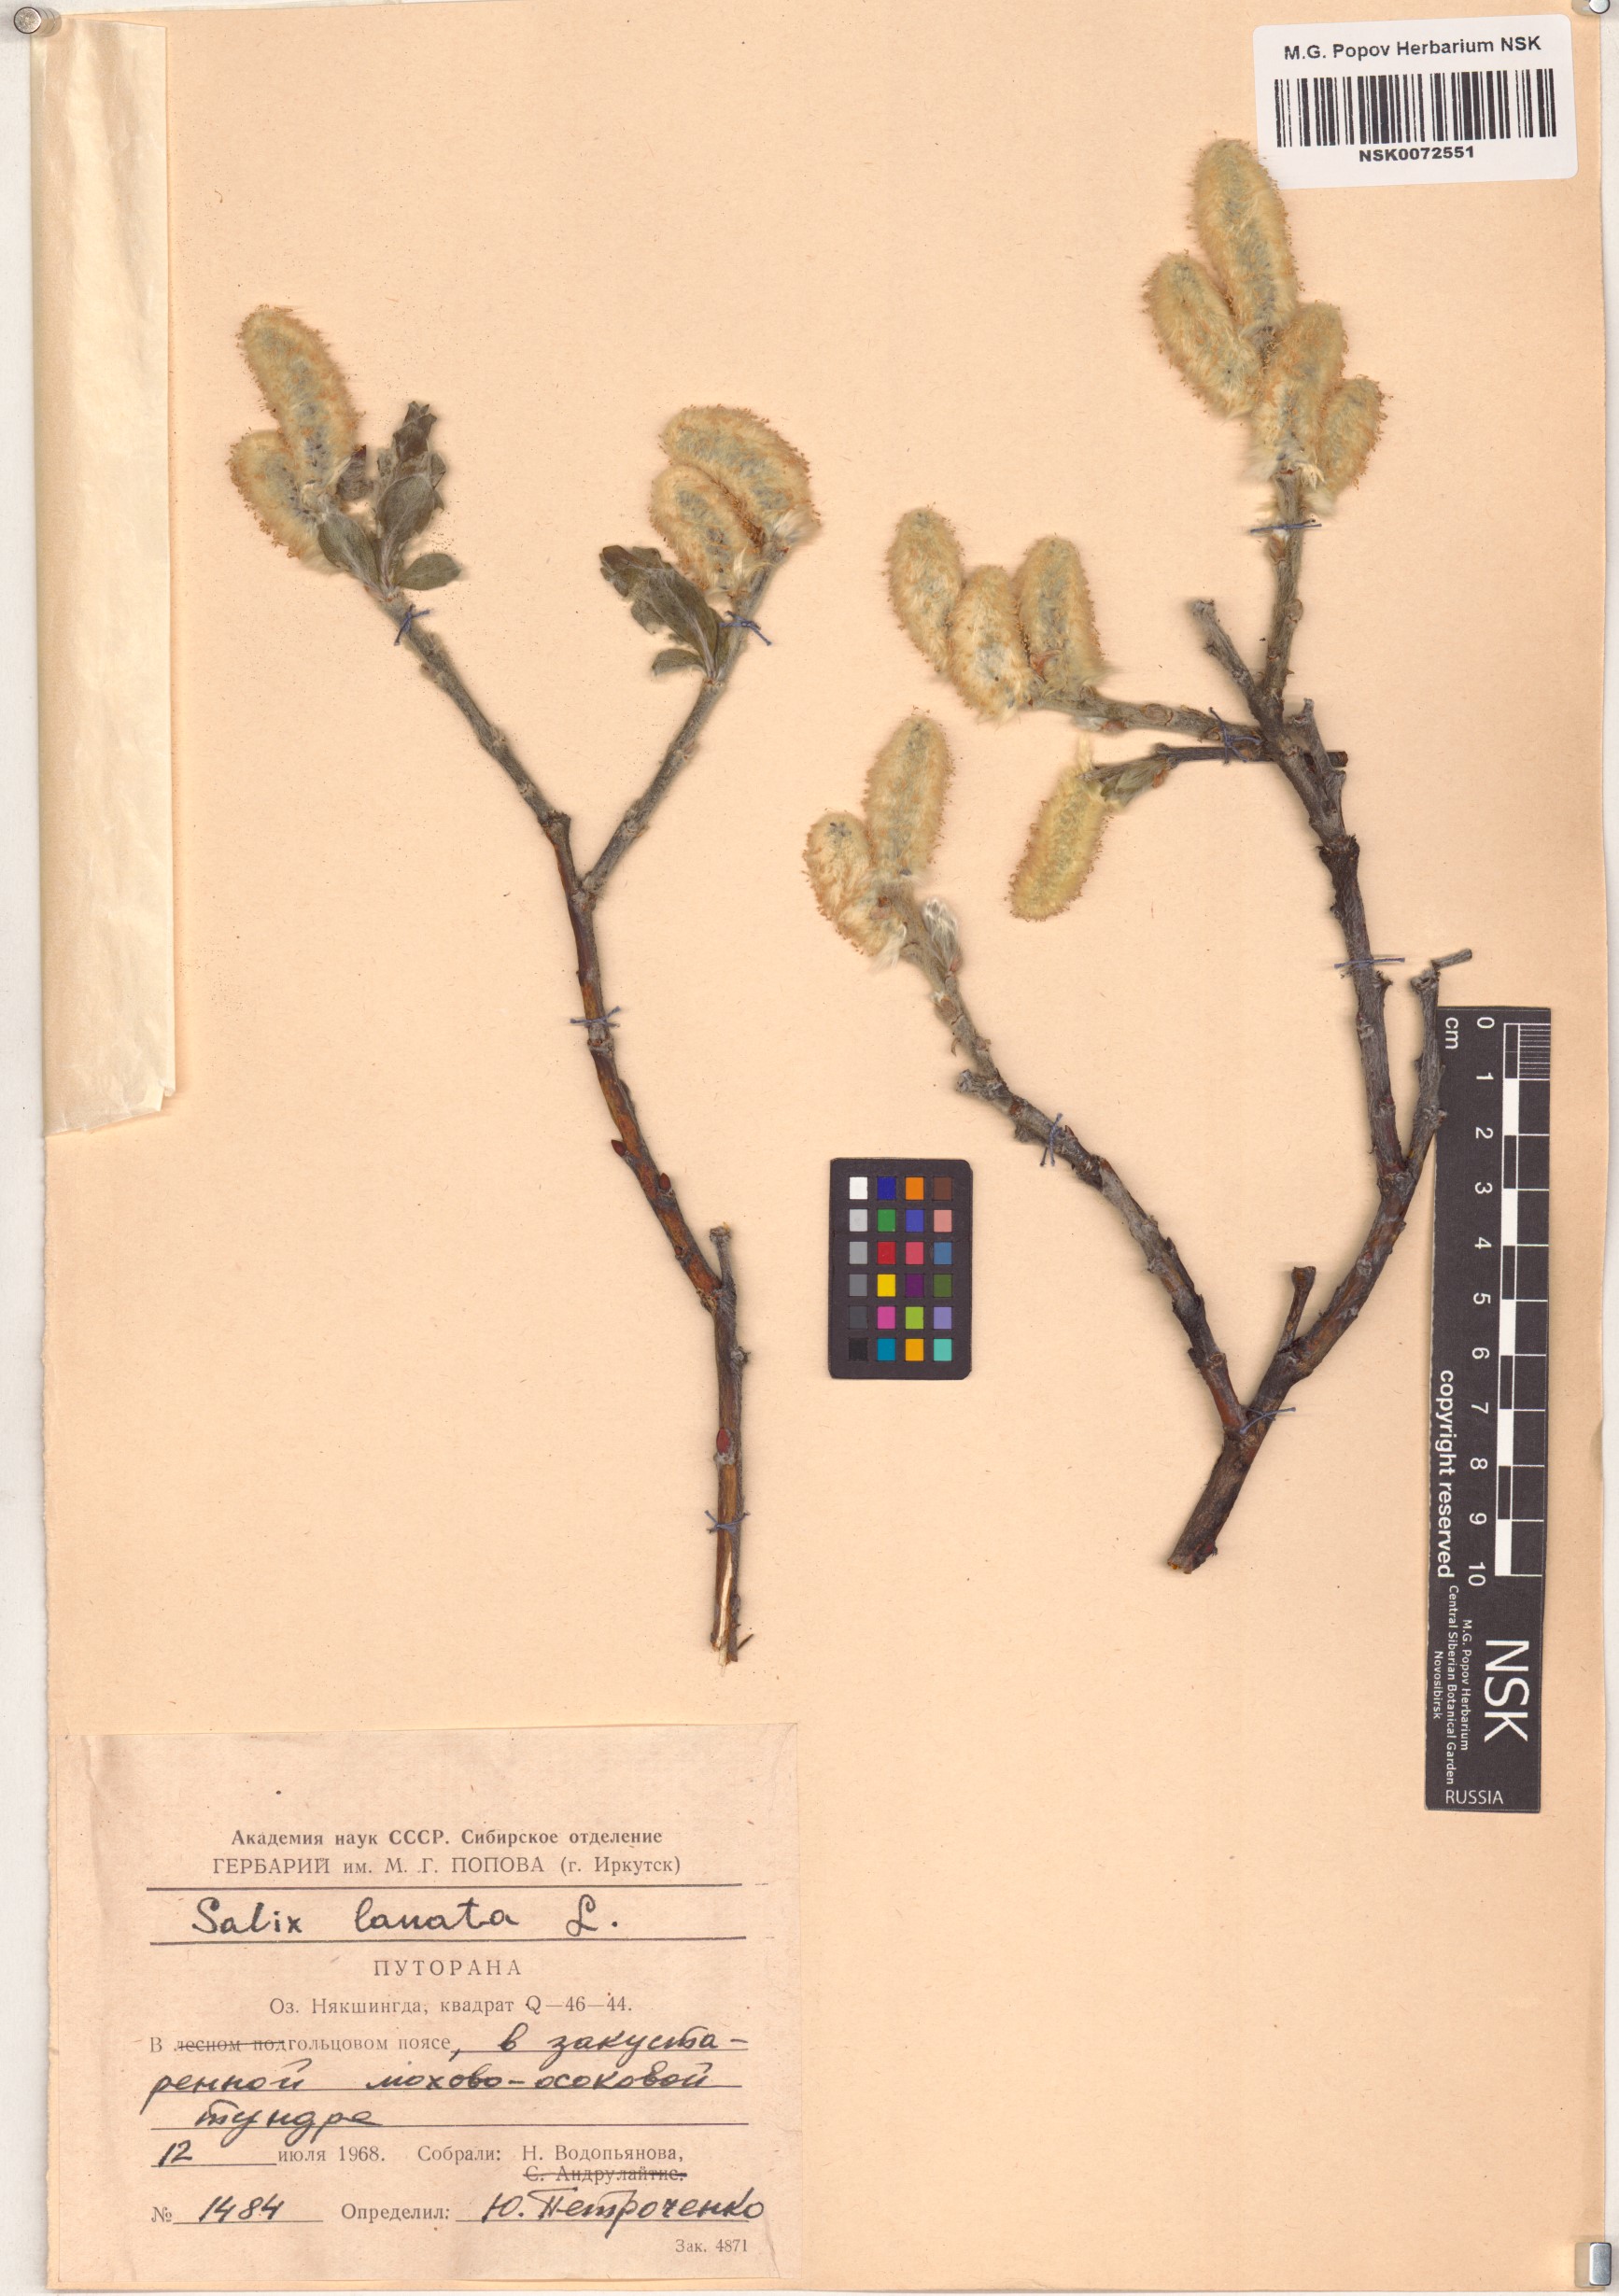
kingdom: Plantae
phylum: Tracheophyta
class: Magnoliopsida
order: Malpighiales
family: Salicaceae
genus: Salix
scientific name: Salix lanata
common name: Woolly willow
